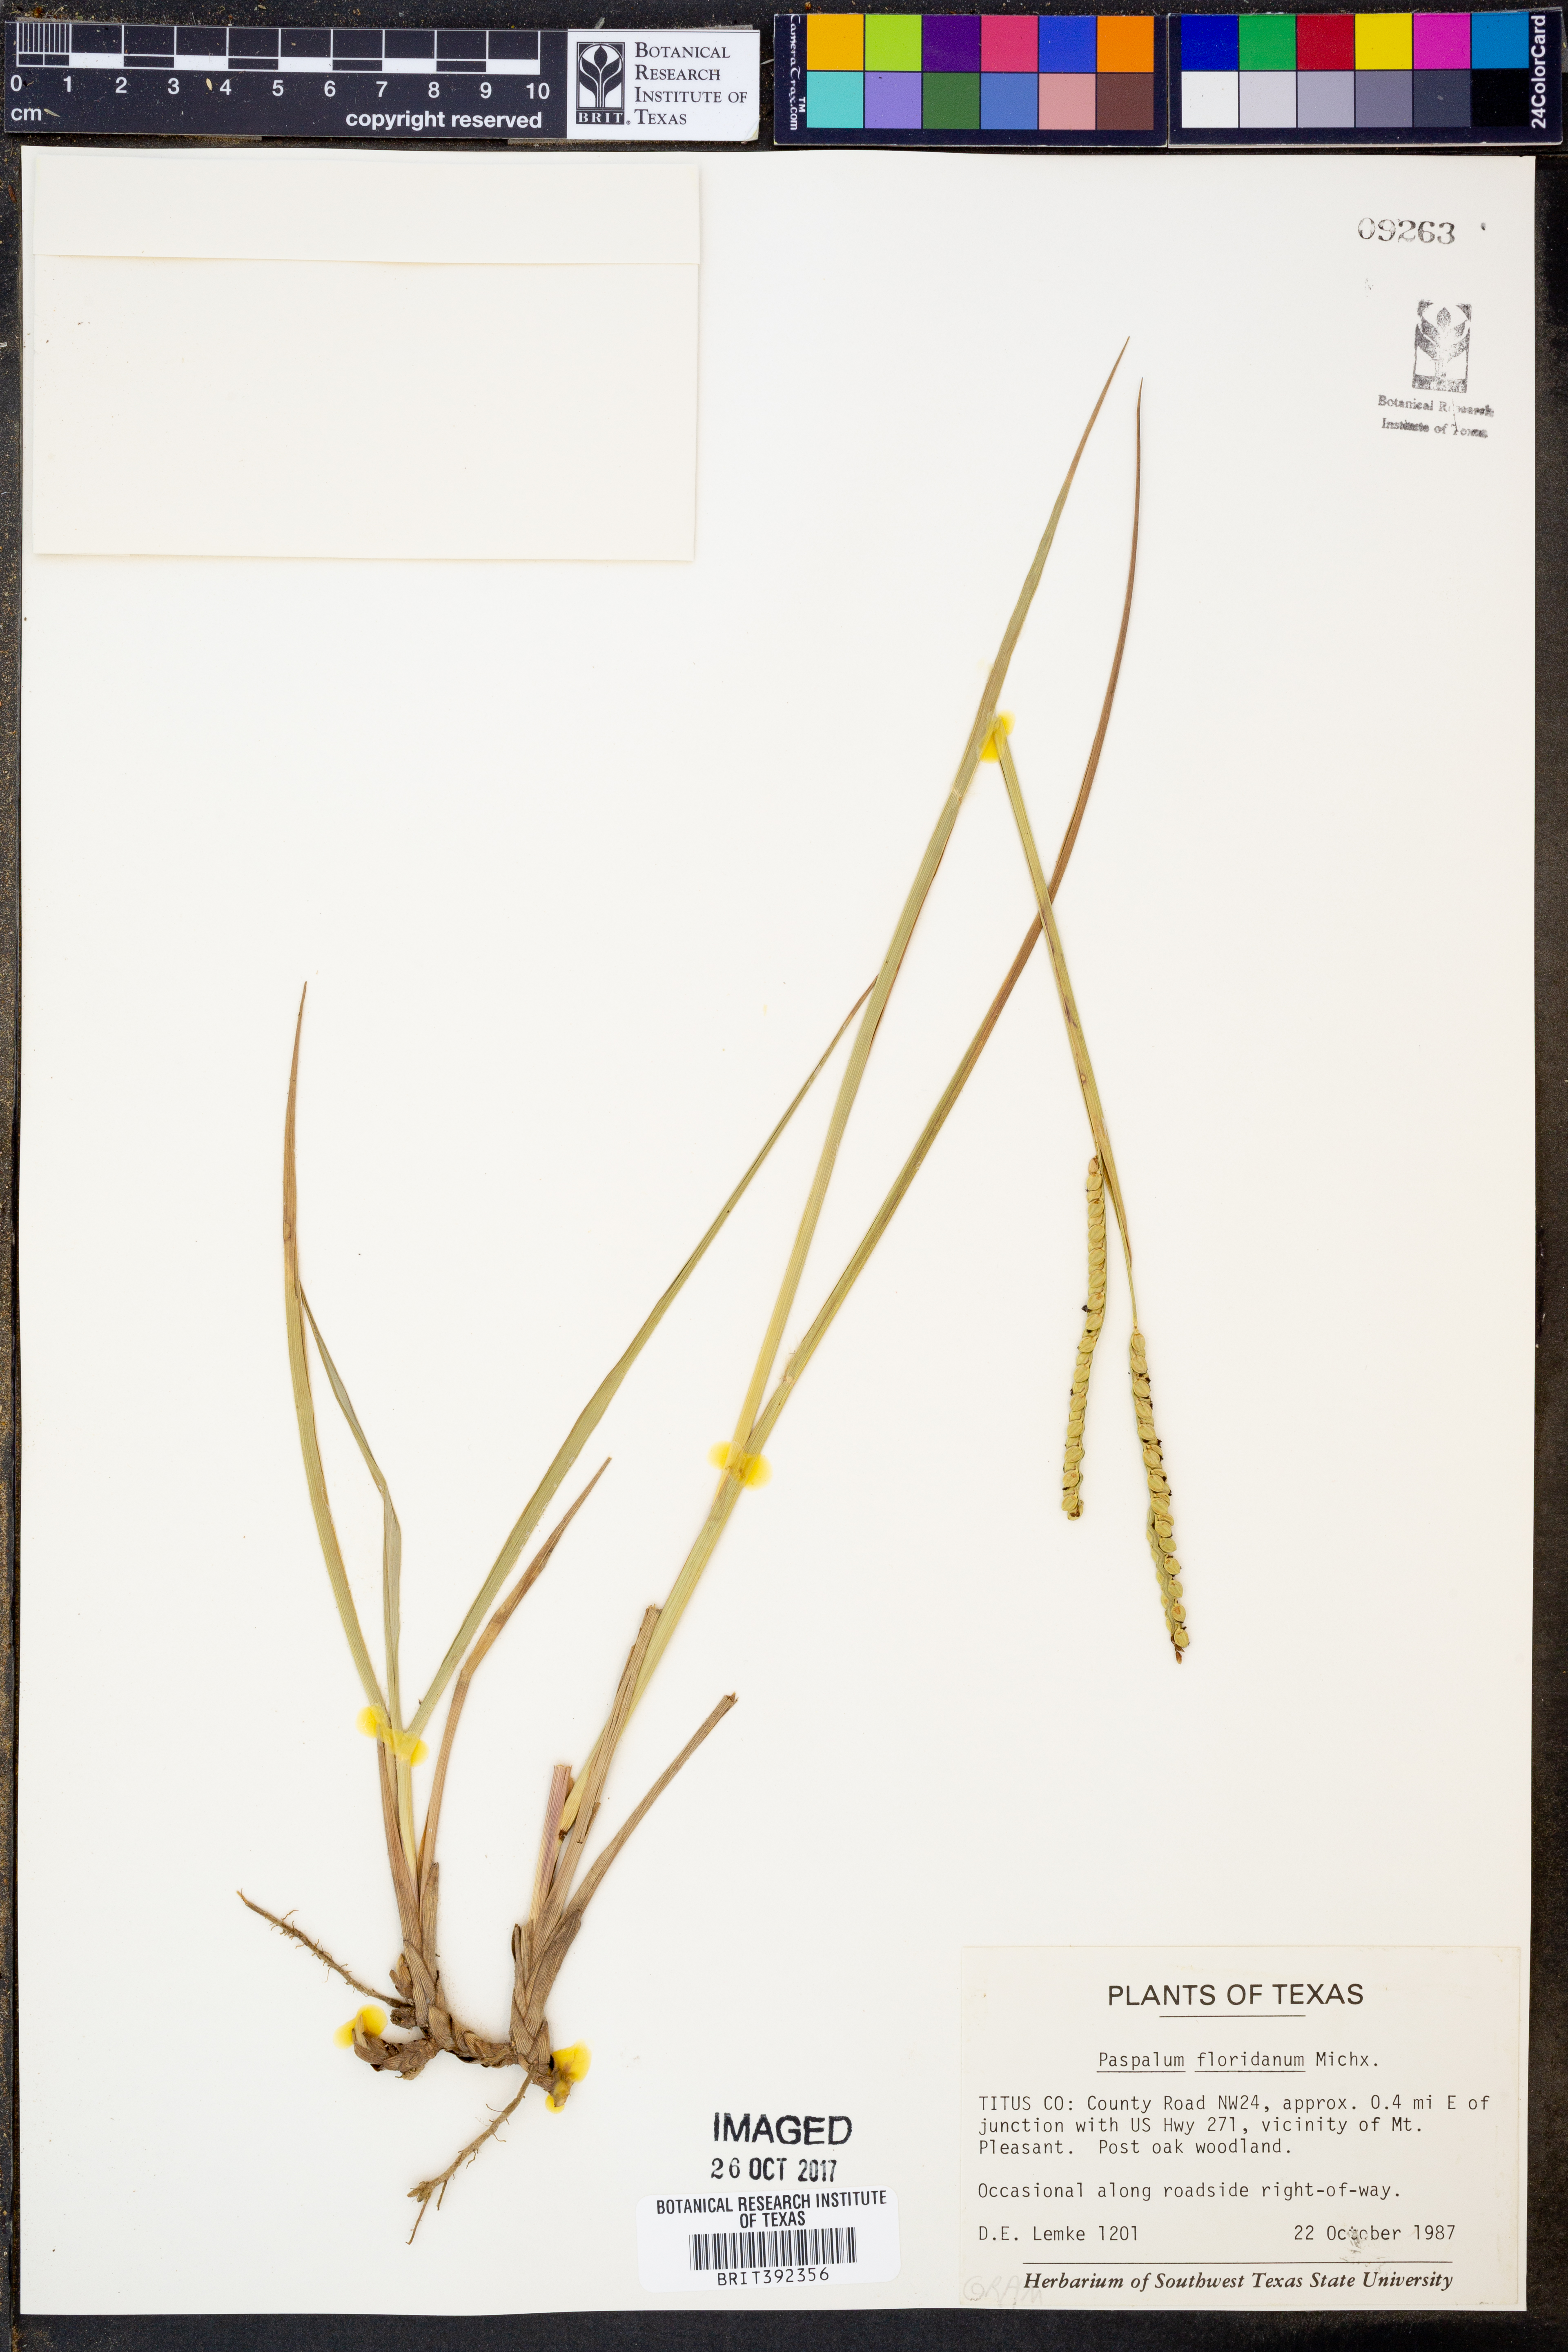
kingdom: Plantae
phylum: Tracheophyta
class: Liliopsida
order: Poales
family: Poaceae
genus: Paspalum
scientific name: Paspalum floridanum
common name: Florida paspalum
